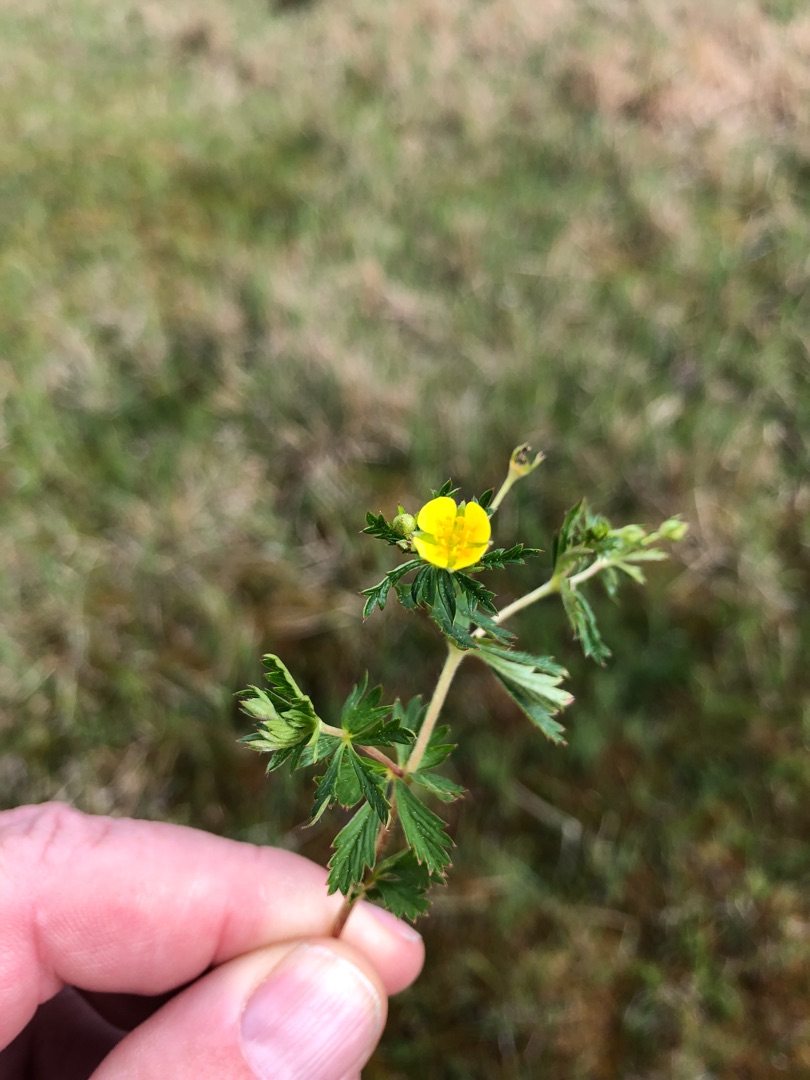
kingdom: Plantae
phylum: Tracheophyta
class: Magnoliopsida
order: Rosales
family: Rosaceae
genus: Potentilla
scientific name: Potentilla erecta
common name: Tormentil
